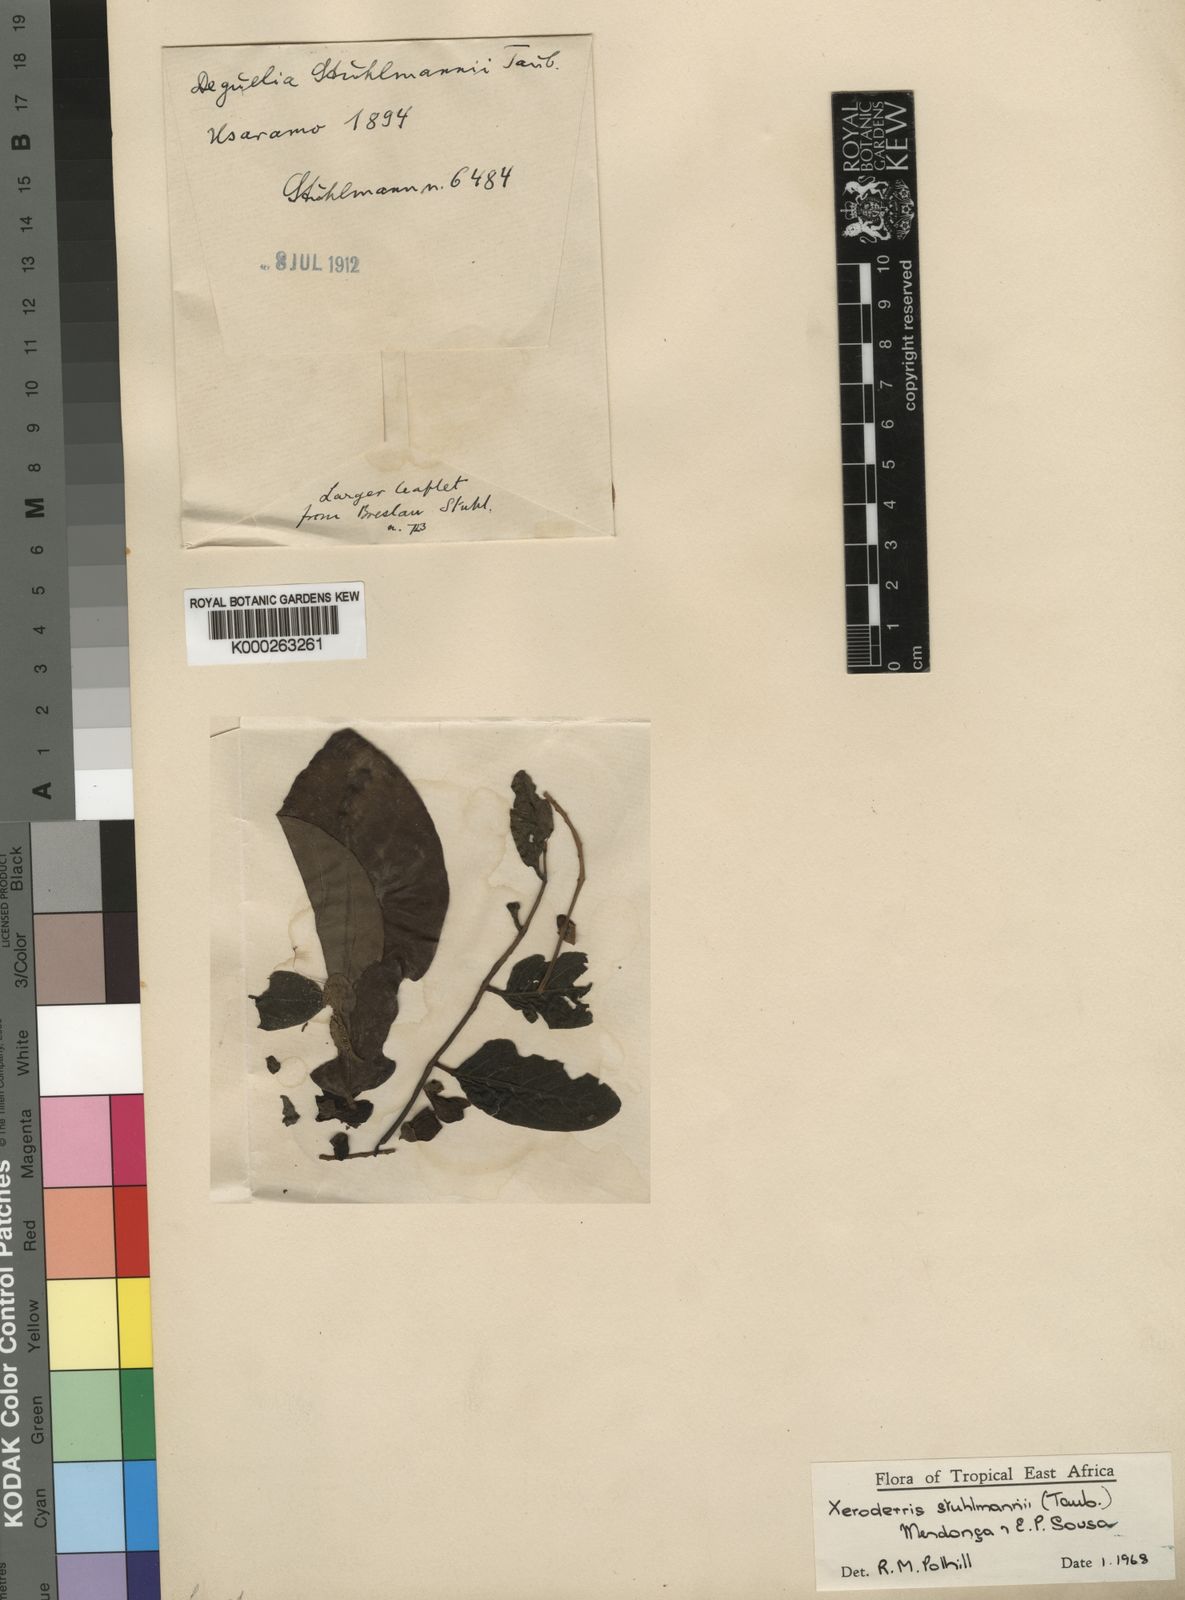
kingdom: Plantae
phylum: Tracheophyta
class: Magnoliopsida
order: Fabales
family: Fabaceae
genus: Aganope
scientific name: Aganope stuhlmannii
